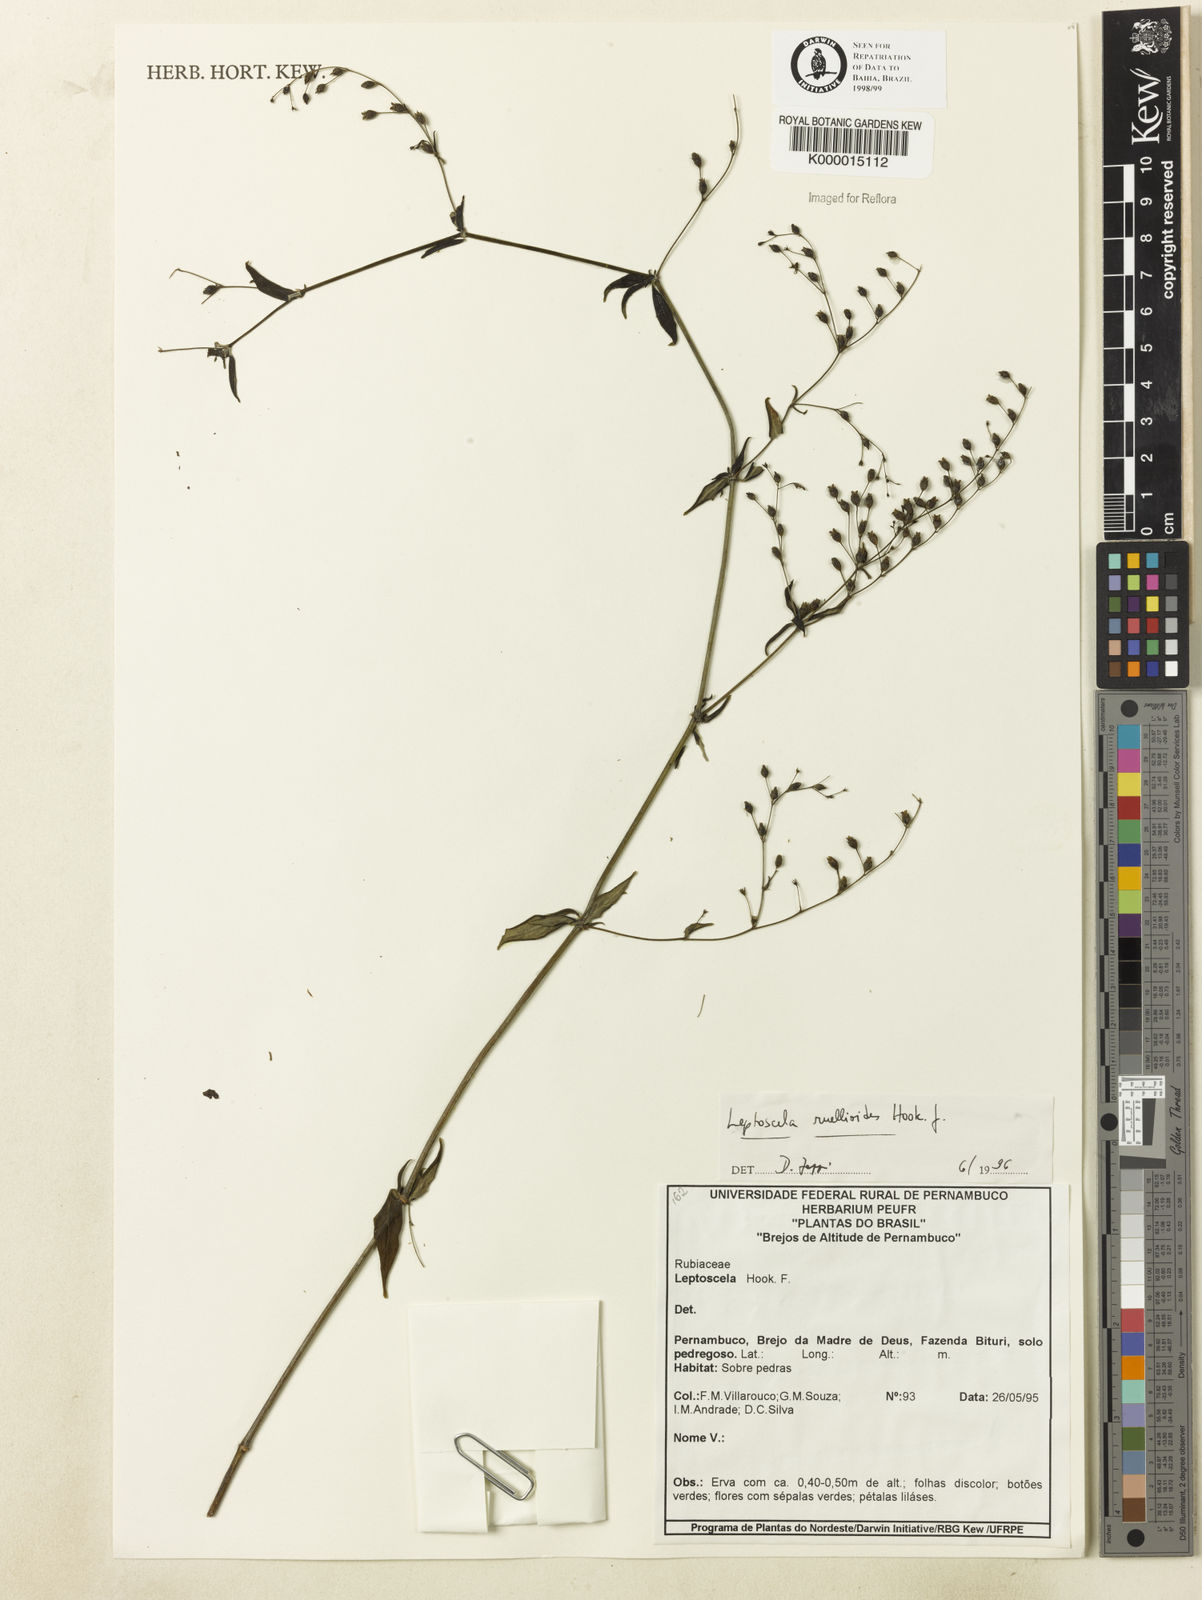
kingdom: Plantae
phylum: Tracheophyta
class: Magnoliopsida
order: Gentianales
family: Rubiaceae
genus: Leptoscela
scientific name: Leptoscela
